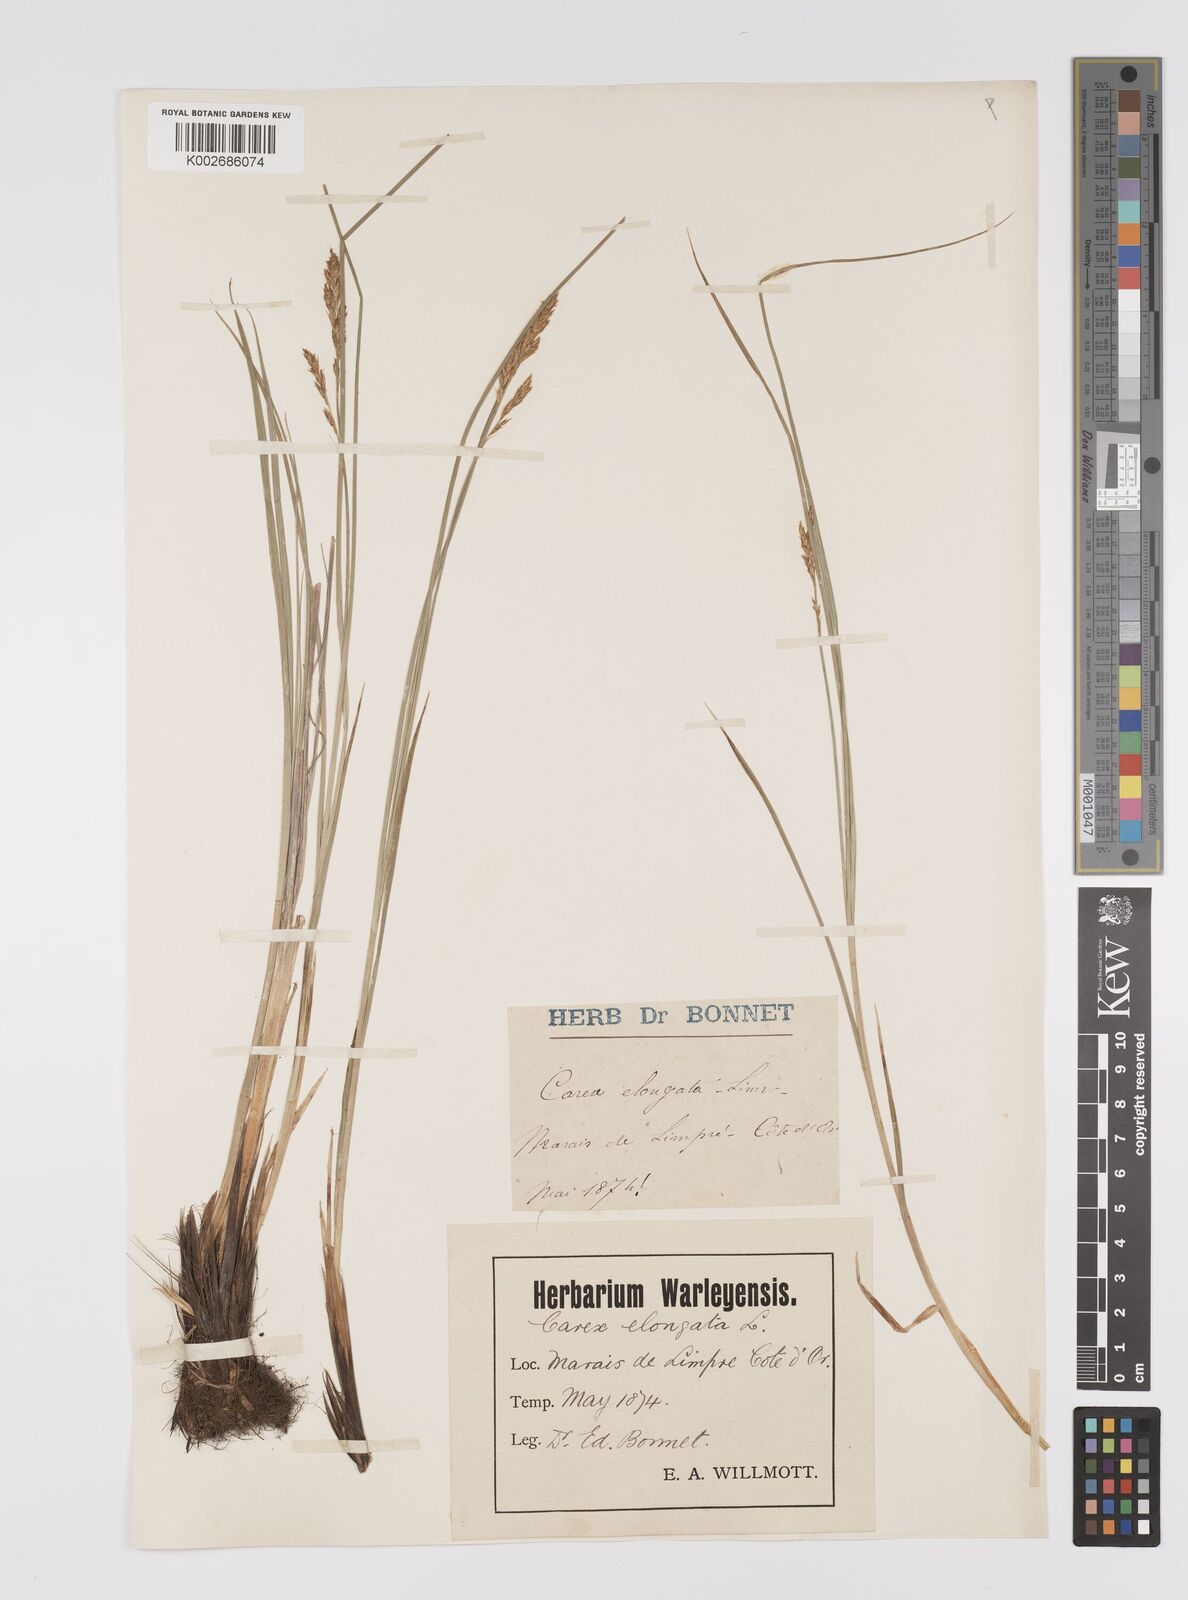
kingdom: Plantae
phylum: Tracheophyta
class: Liliopsida
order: Poales
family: Cyperaceae
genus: Carex
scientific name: Carex elongata
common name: Elongated sedge
